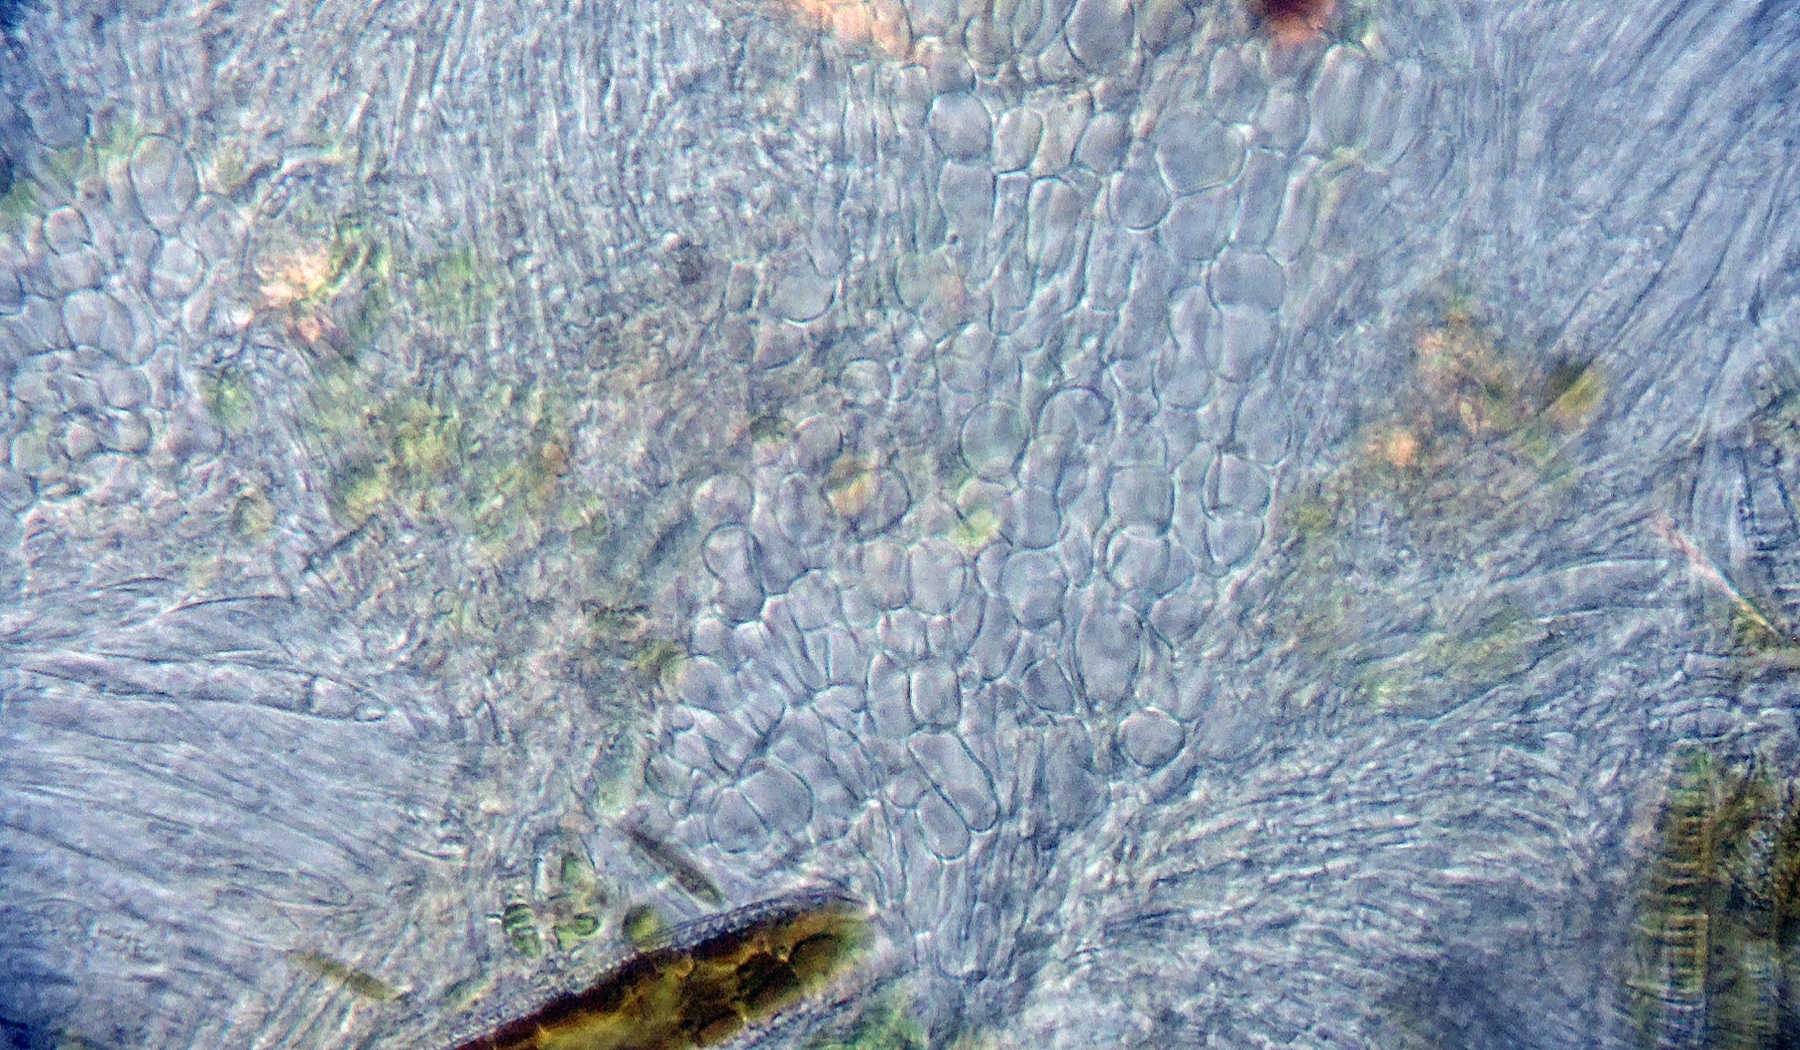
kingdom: Fungi
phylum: Ascomycota
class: Leotiomycetes
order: Helotiales
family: Pezizellaceae
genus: Psilachnum
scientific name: Psilachnum
